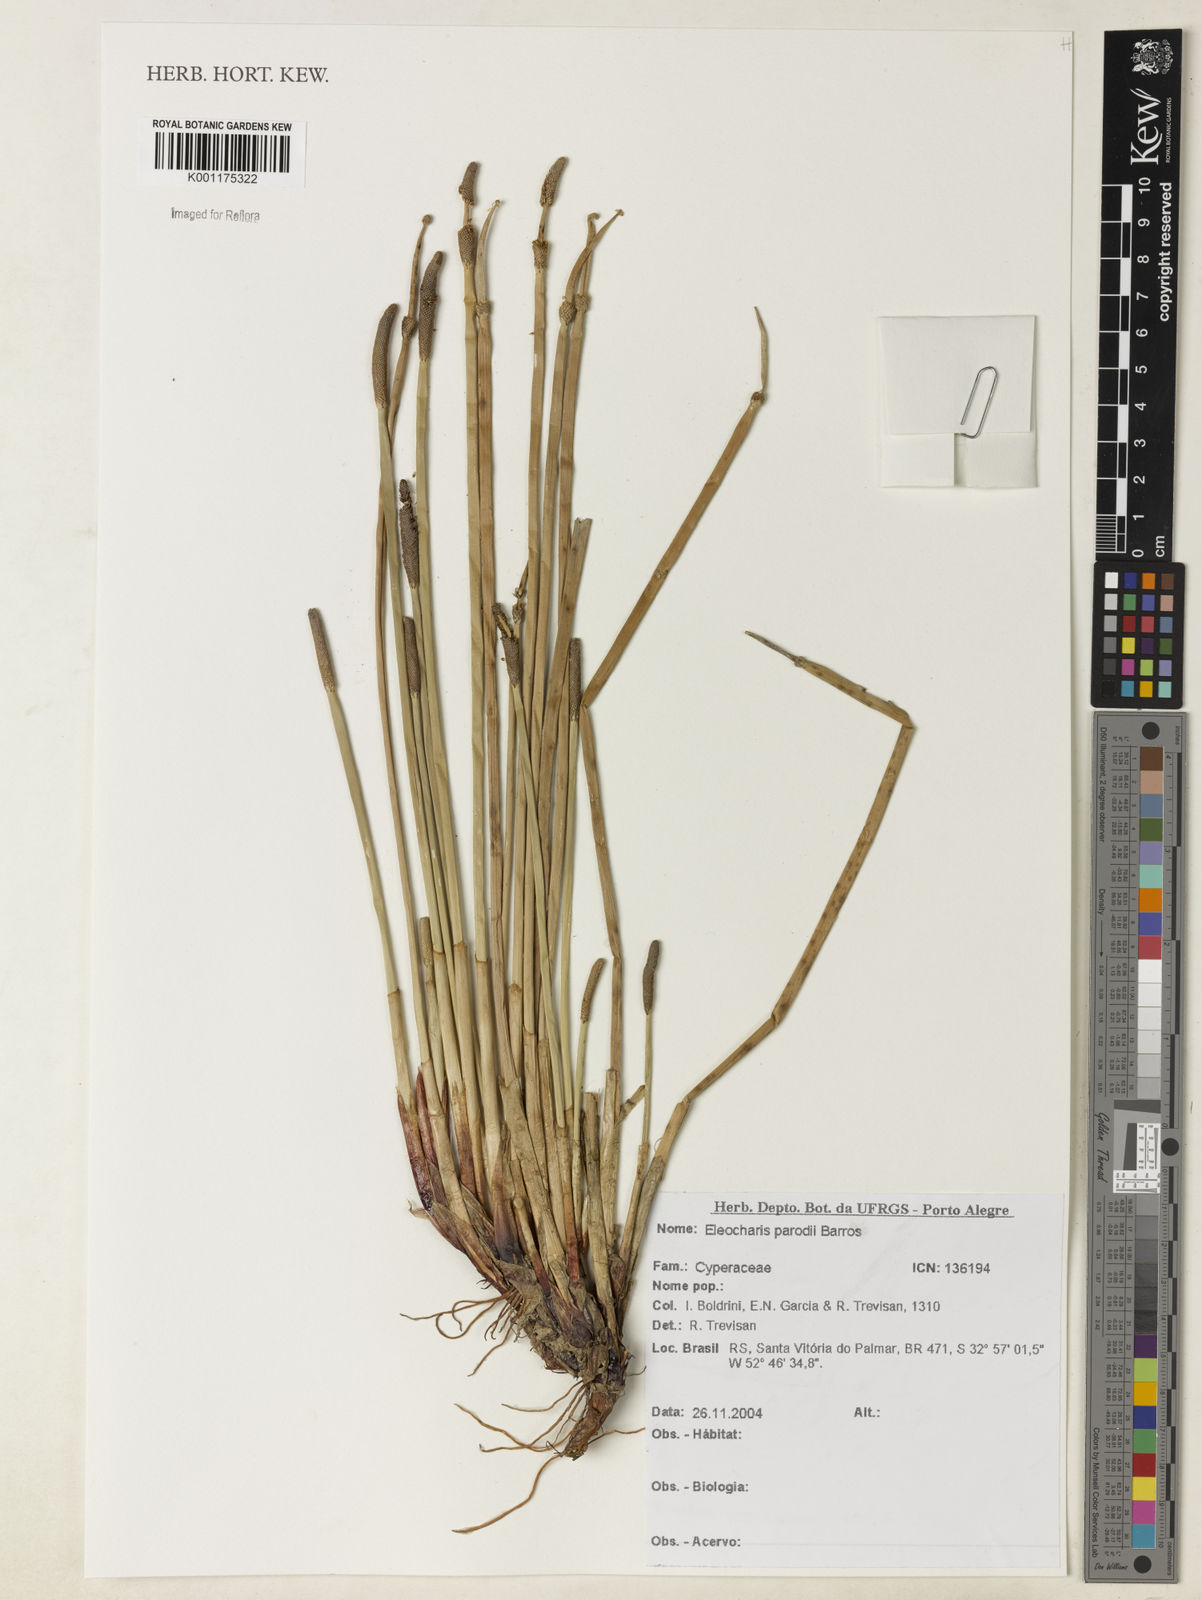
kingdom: Plantae
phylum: Tracheophyta
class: Liliopsida
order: Poales
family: Cyperaceae
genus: Eleocharis
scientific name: Eleocharis parodii
